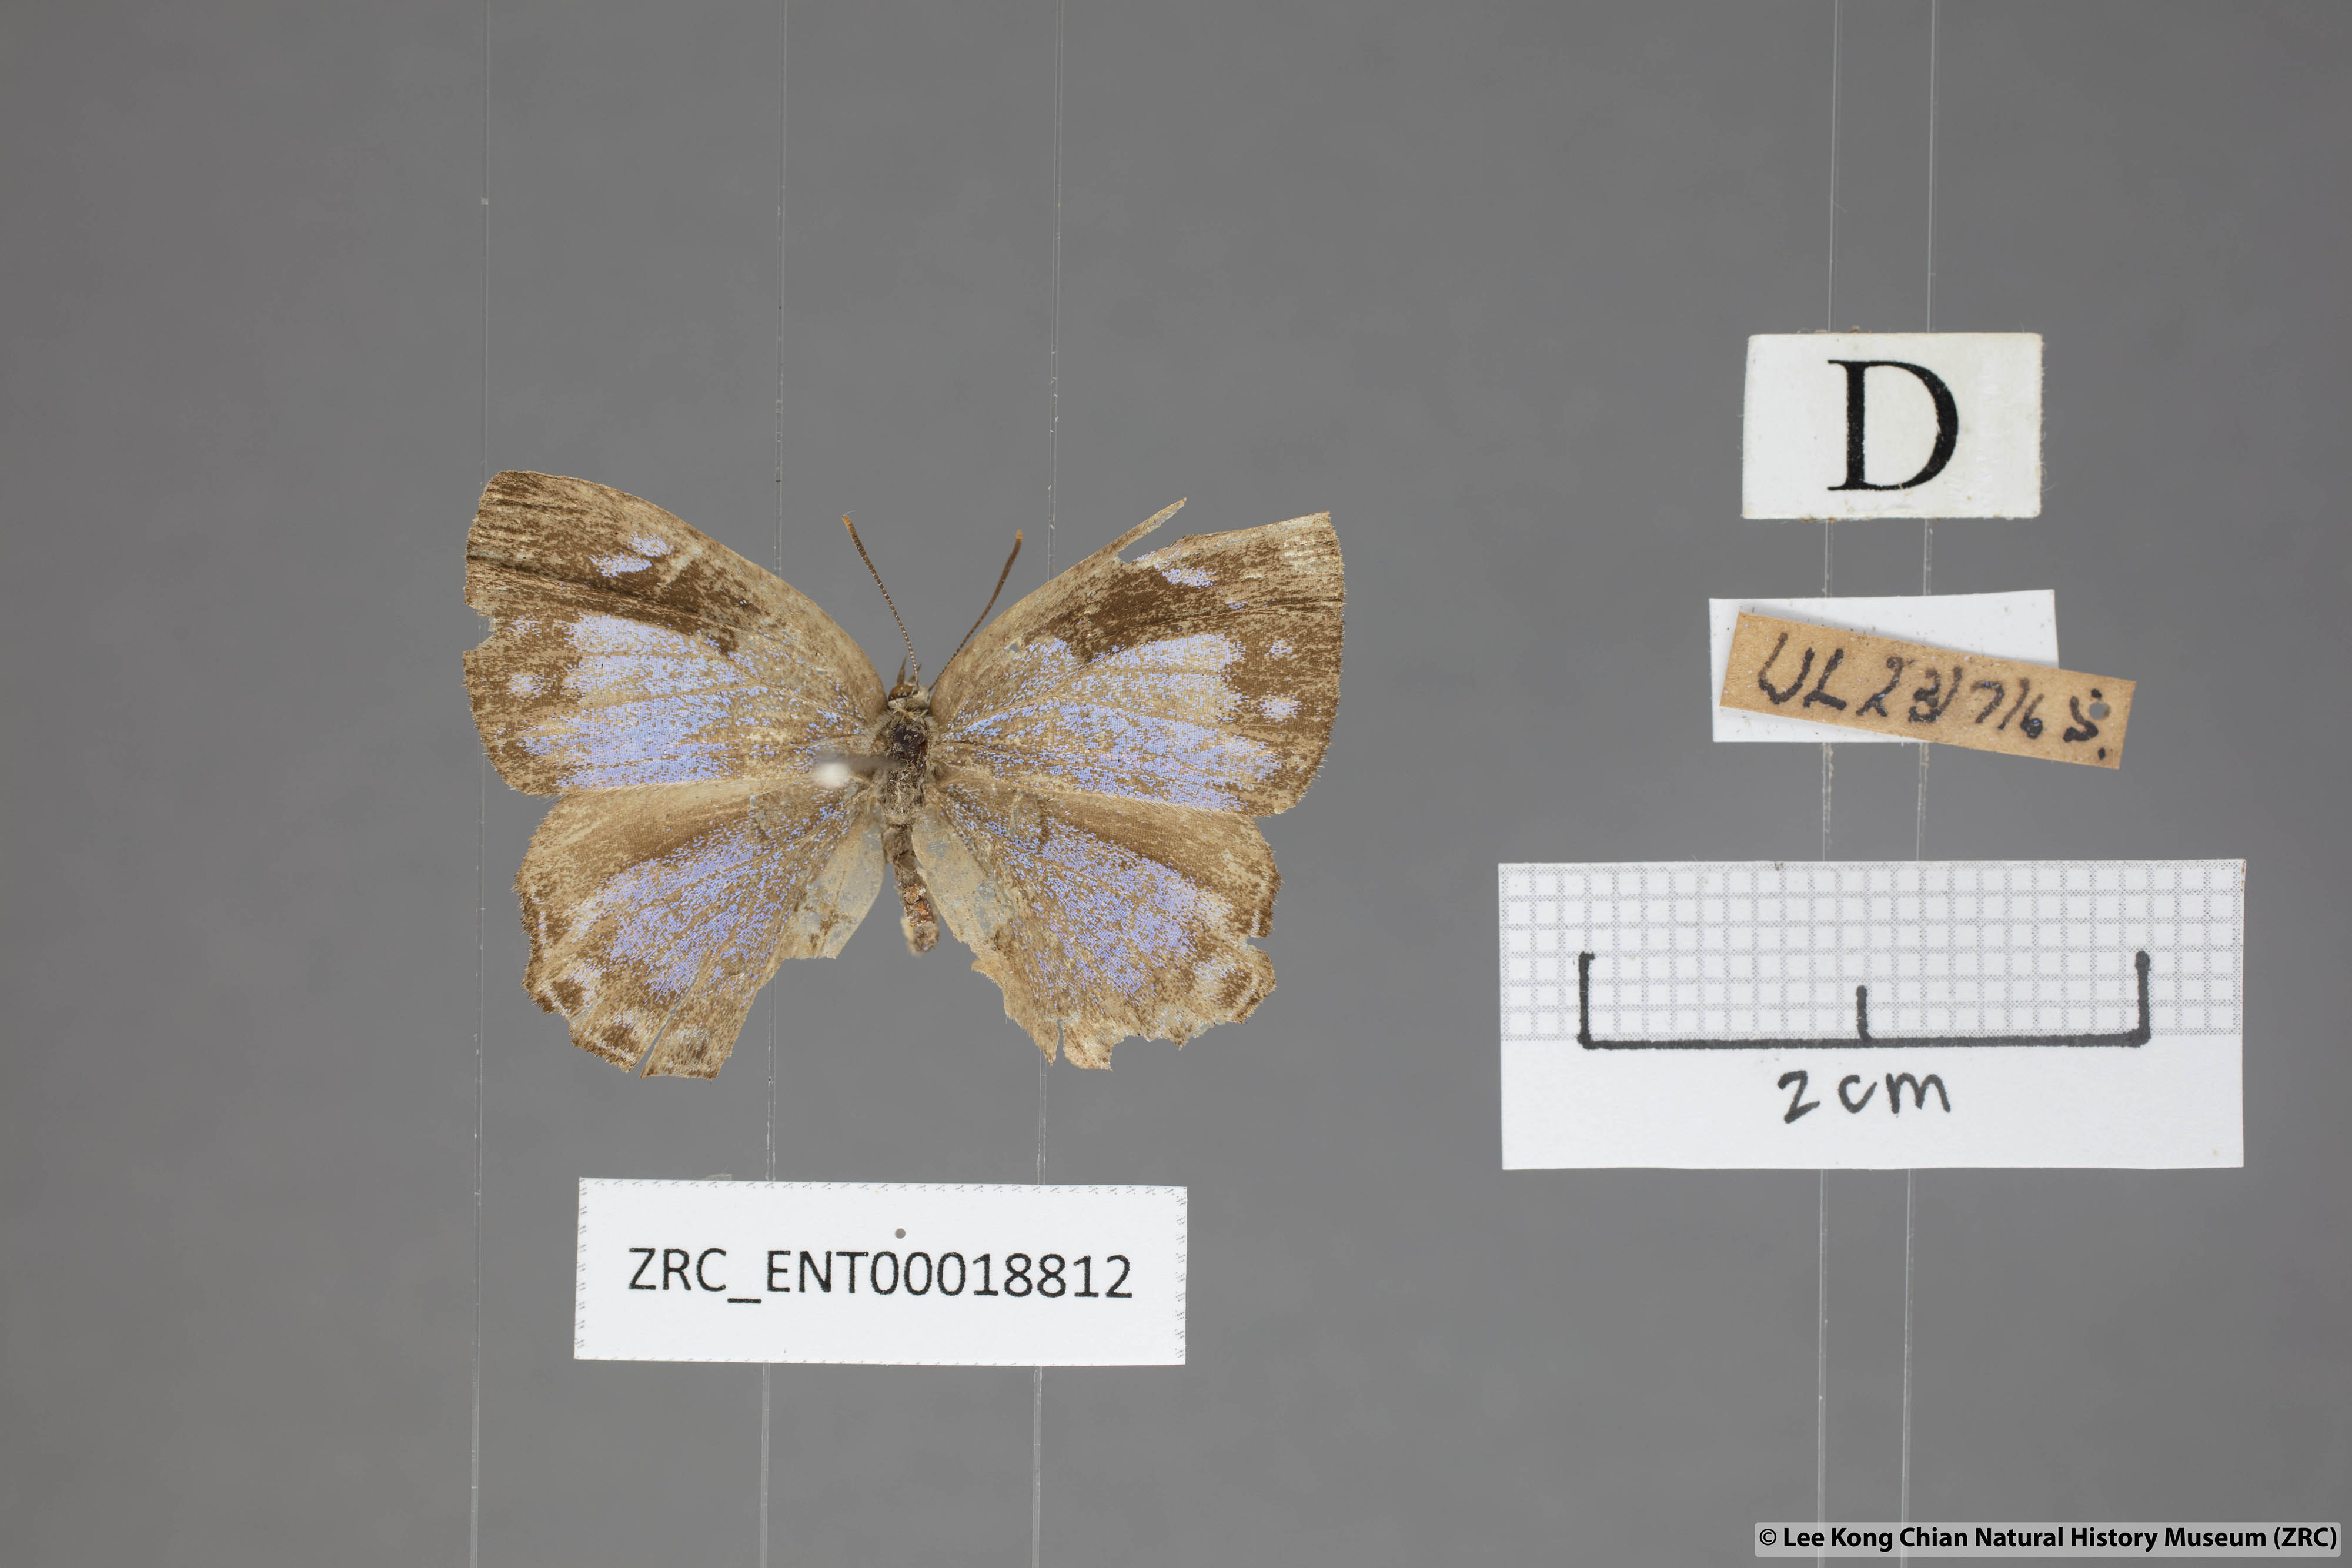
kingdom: Animalia
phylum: Arthropoda
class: Insecta
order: Lepidoptera
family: Lycaenidae
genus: Poritia
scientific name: Poritia pleurata
